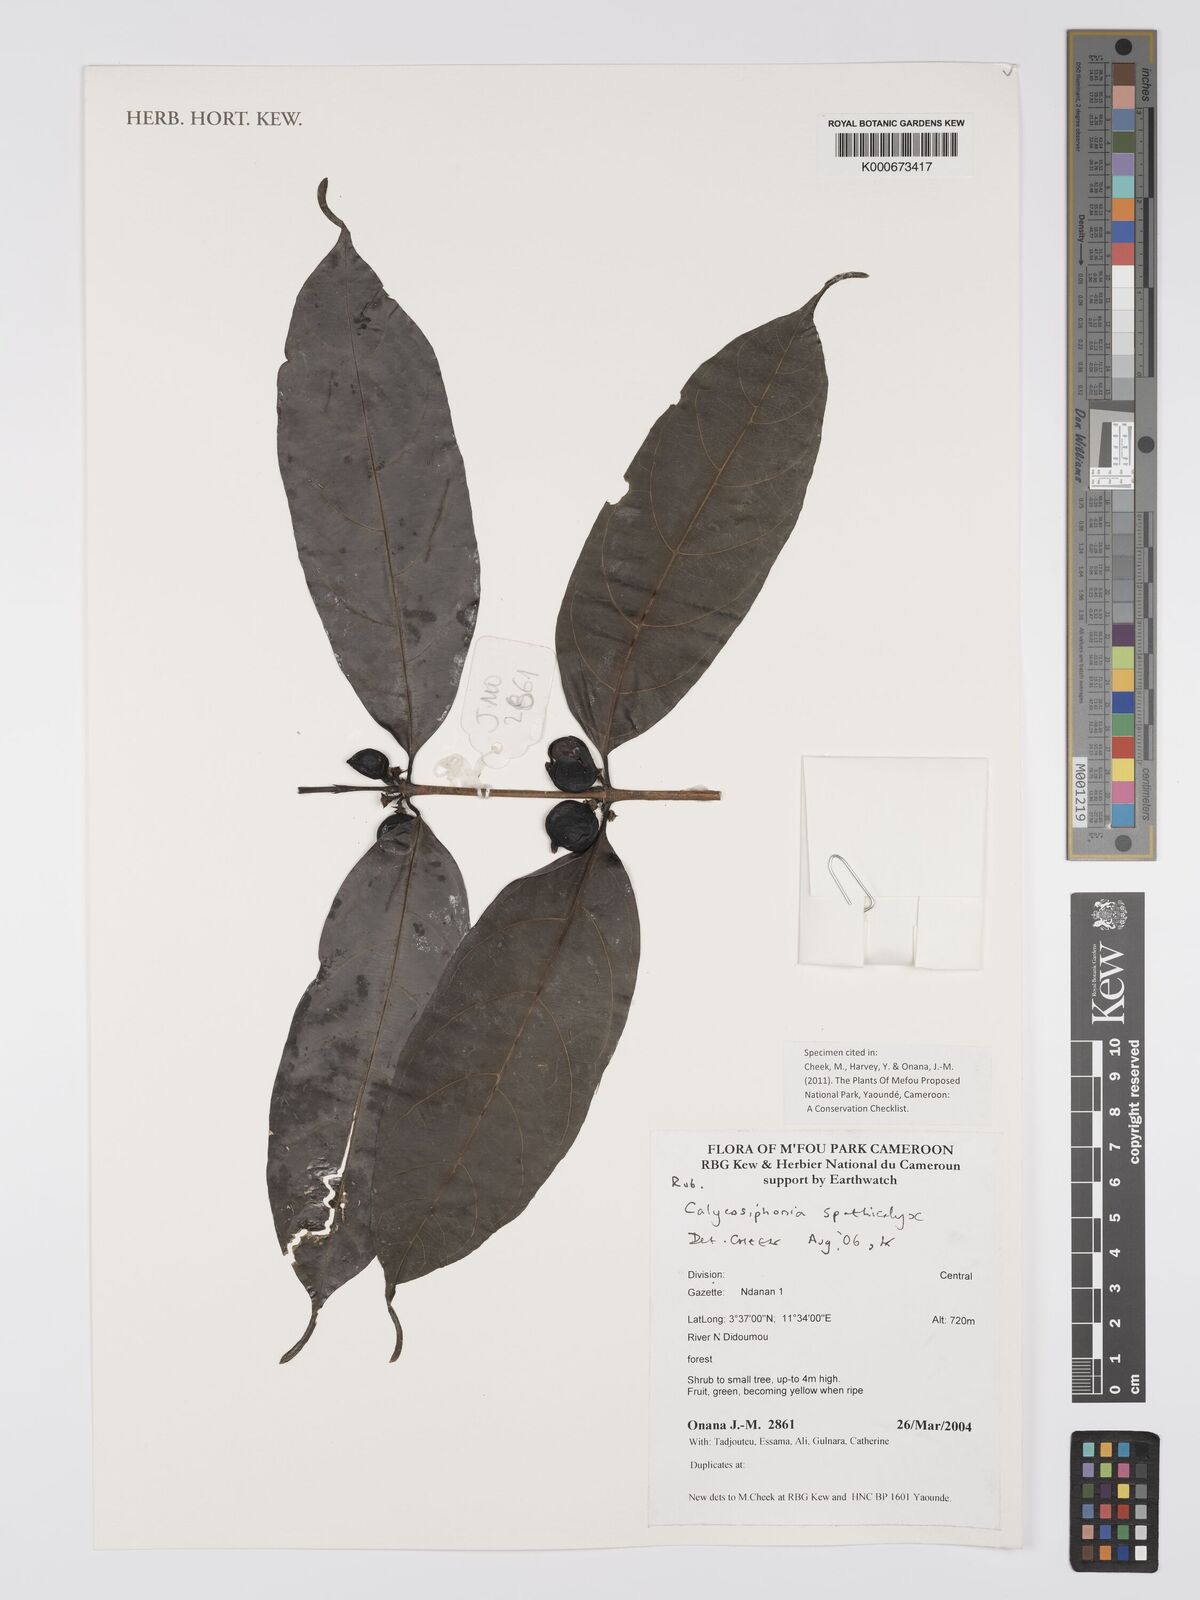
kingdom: Plantae
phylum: Tracheophyta
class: Magnoliopsida
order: Gentianales
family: Rubiaceae
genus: Calycosiphonia
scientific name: Calycosiphonia spathicalyx
